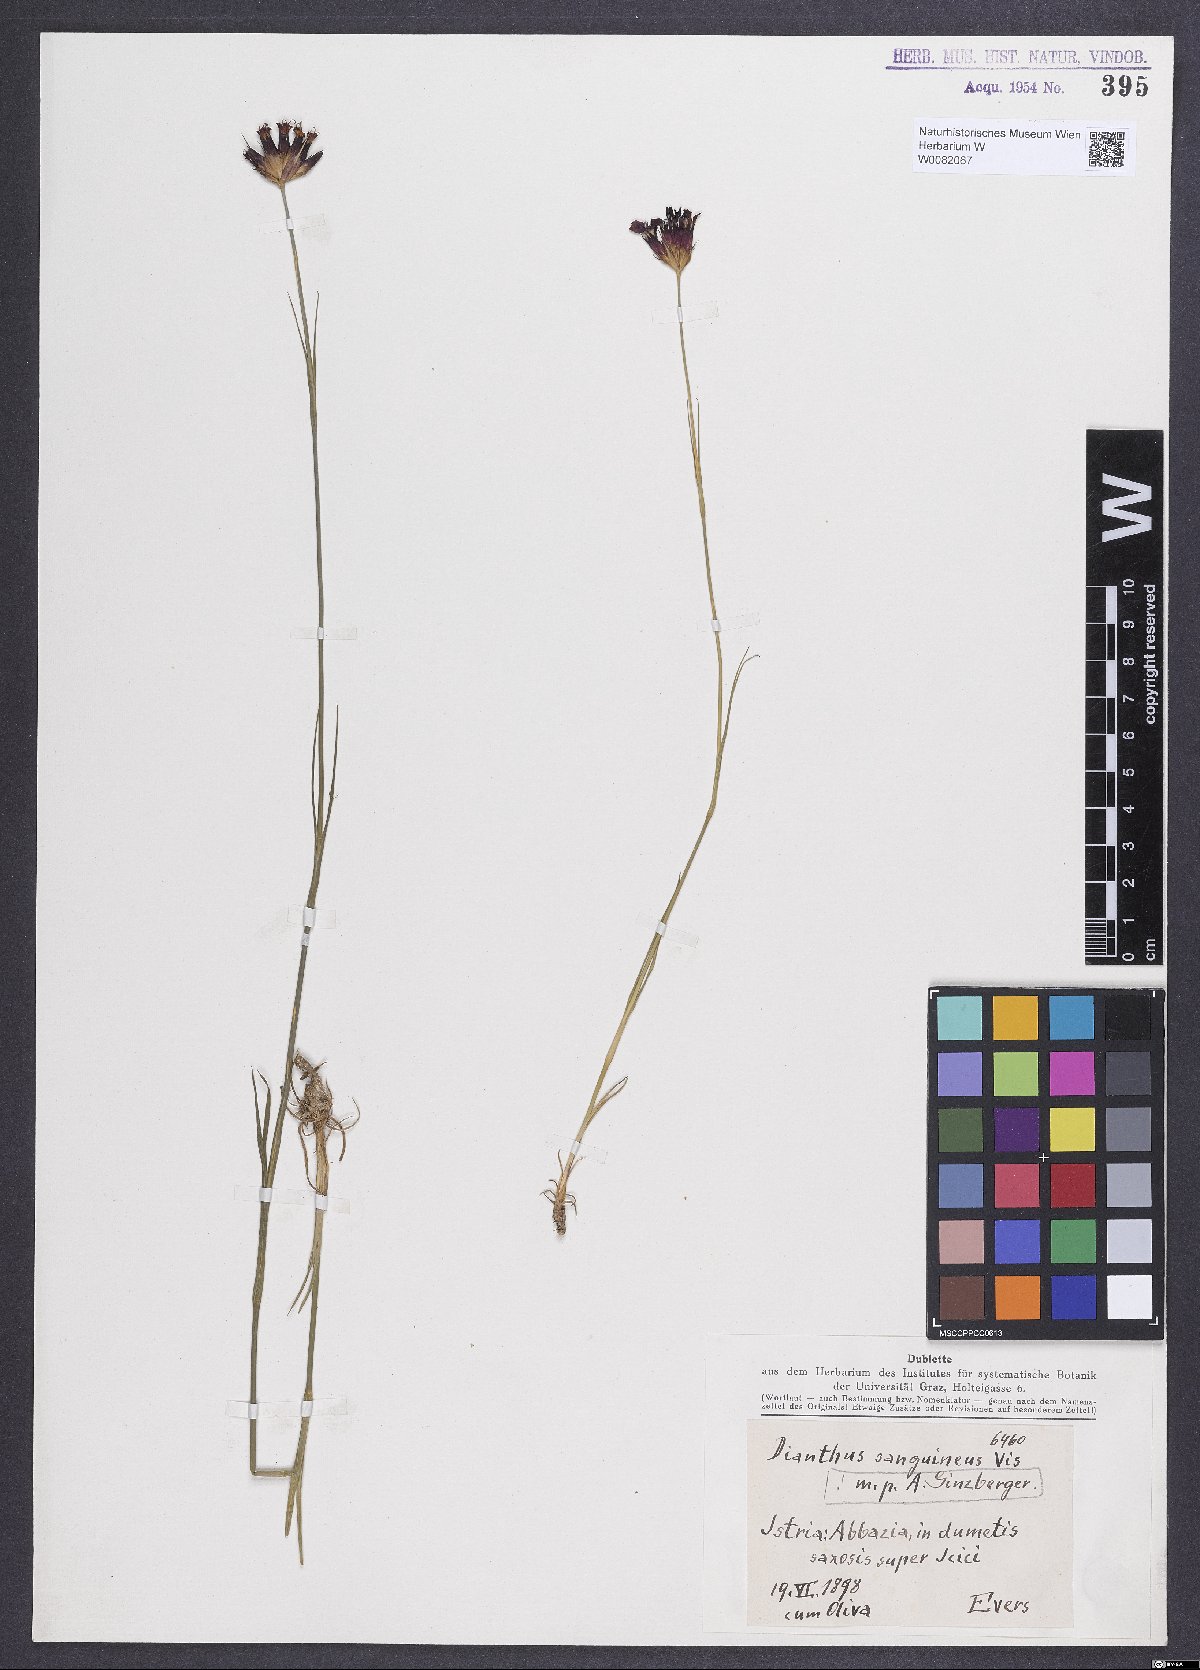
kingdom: Plantae
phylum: Tracheophyta
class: Magnoliopsida
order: Caryophyllales
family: Caryophyllaceae
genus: Dianthus
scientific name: Dianthus carthusianorum
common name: Carthusian pink
